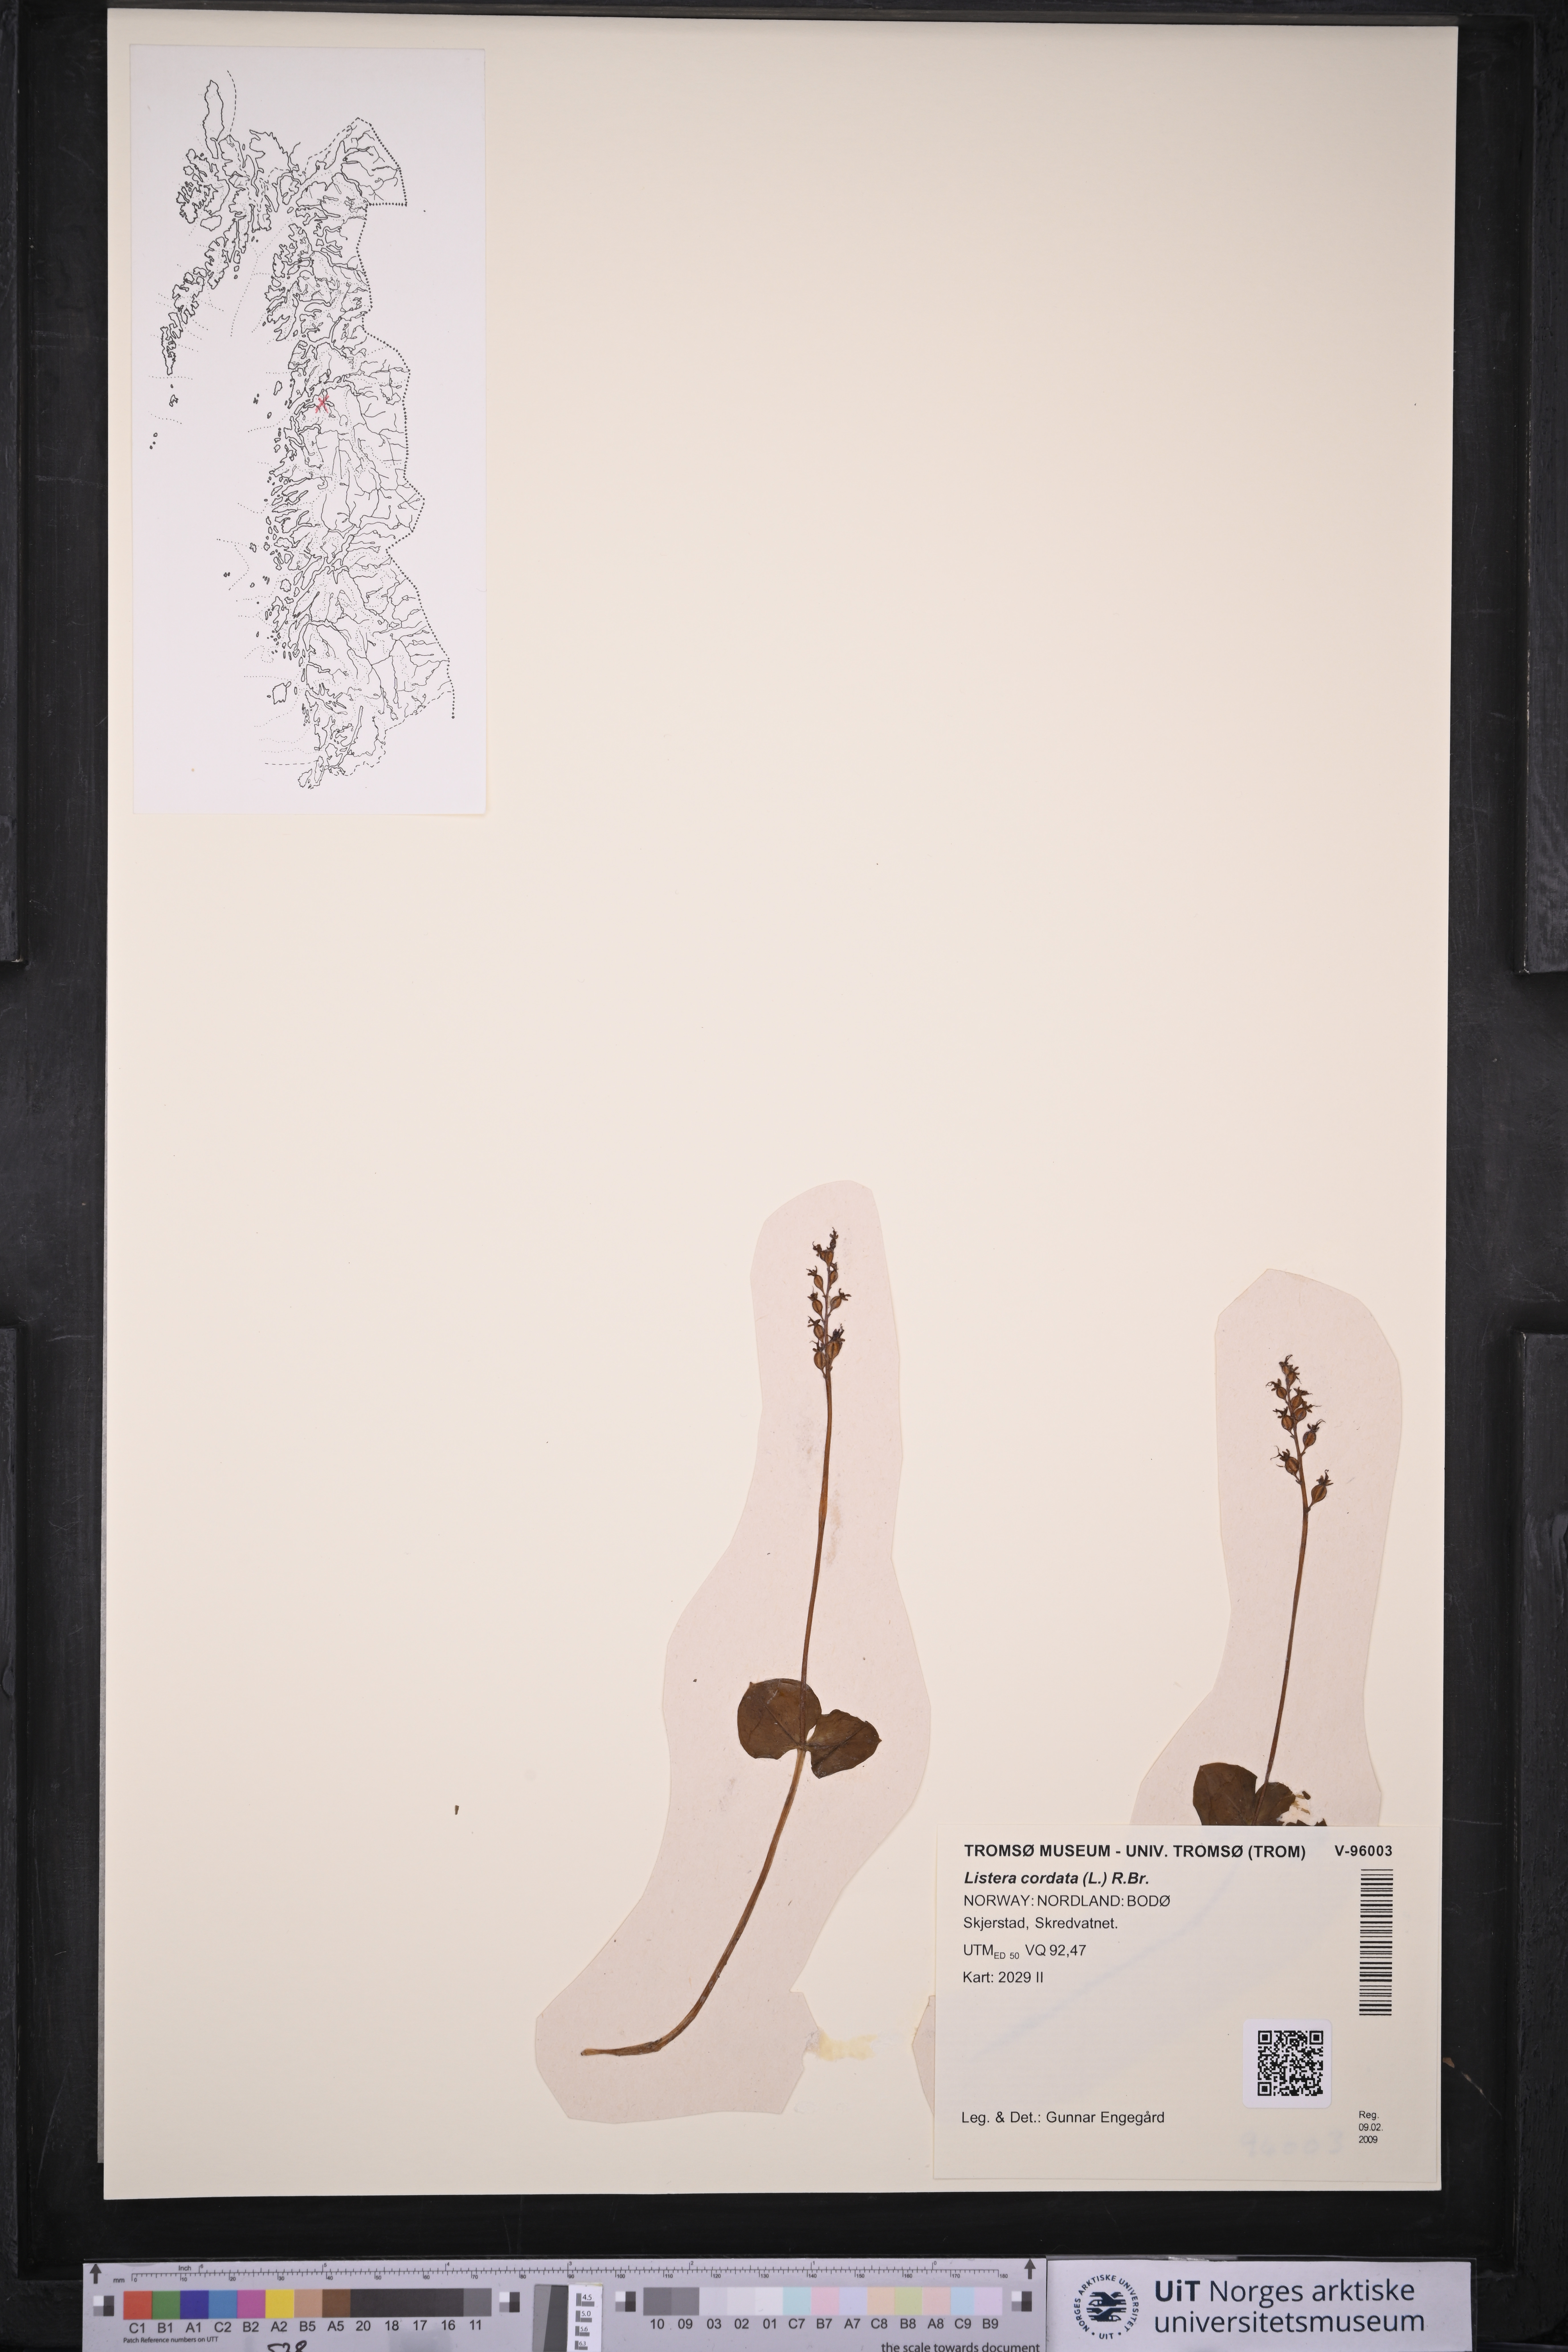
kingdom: Plantae
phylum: Tracheophyta
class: Liliopsida
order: Asparagales
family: Orchidaceae
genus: Neottia
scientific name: Neottia cordata
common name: Lesser twayblade
